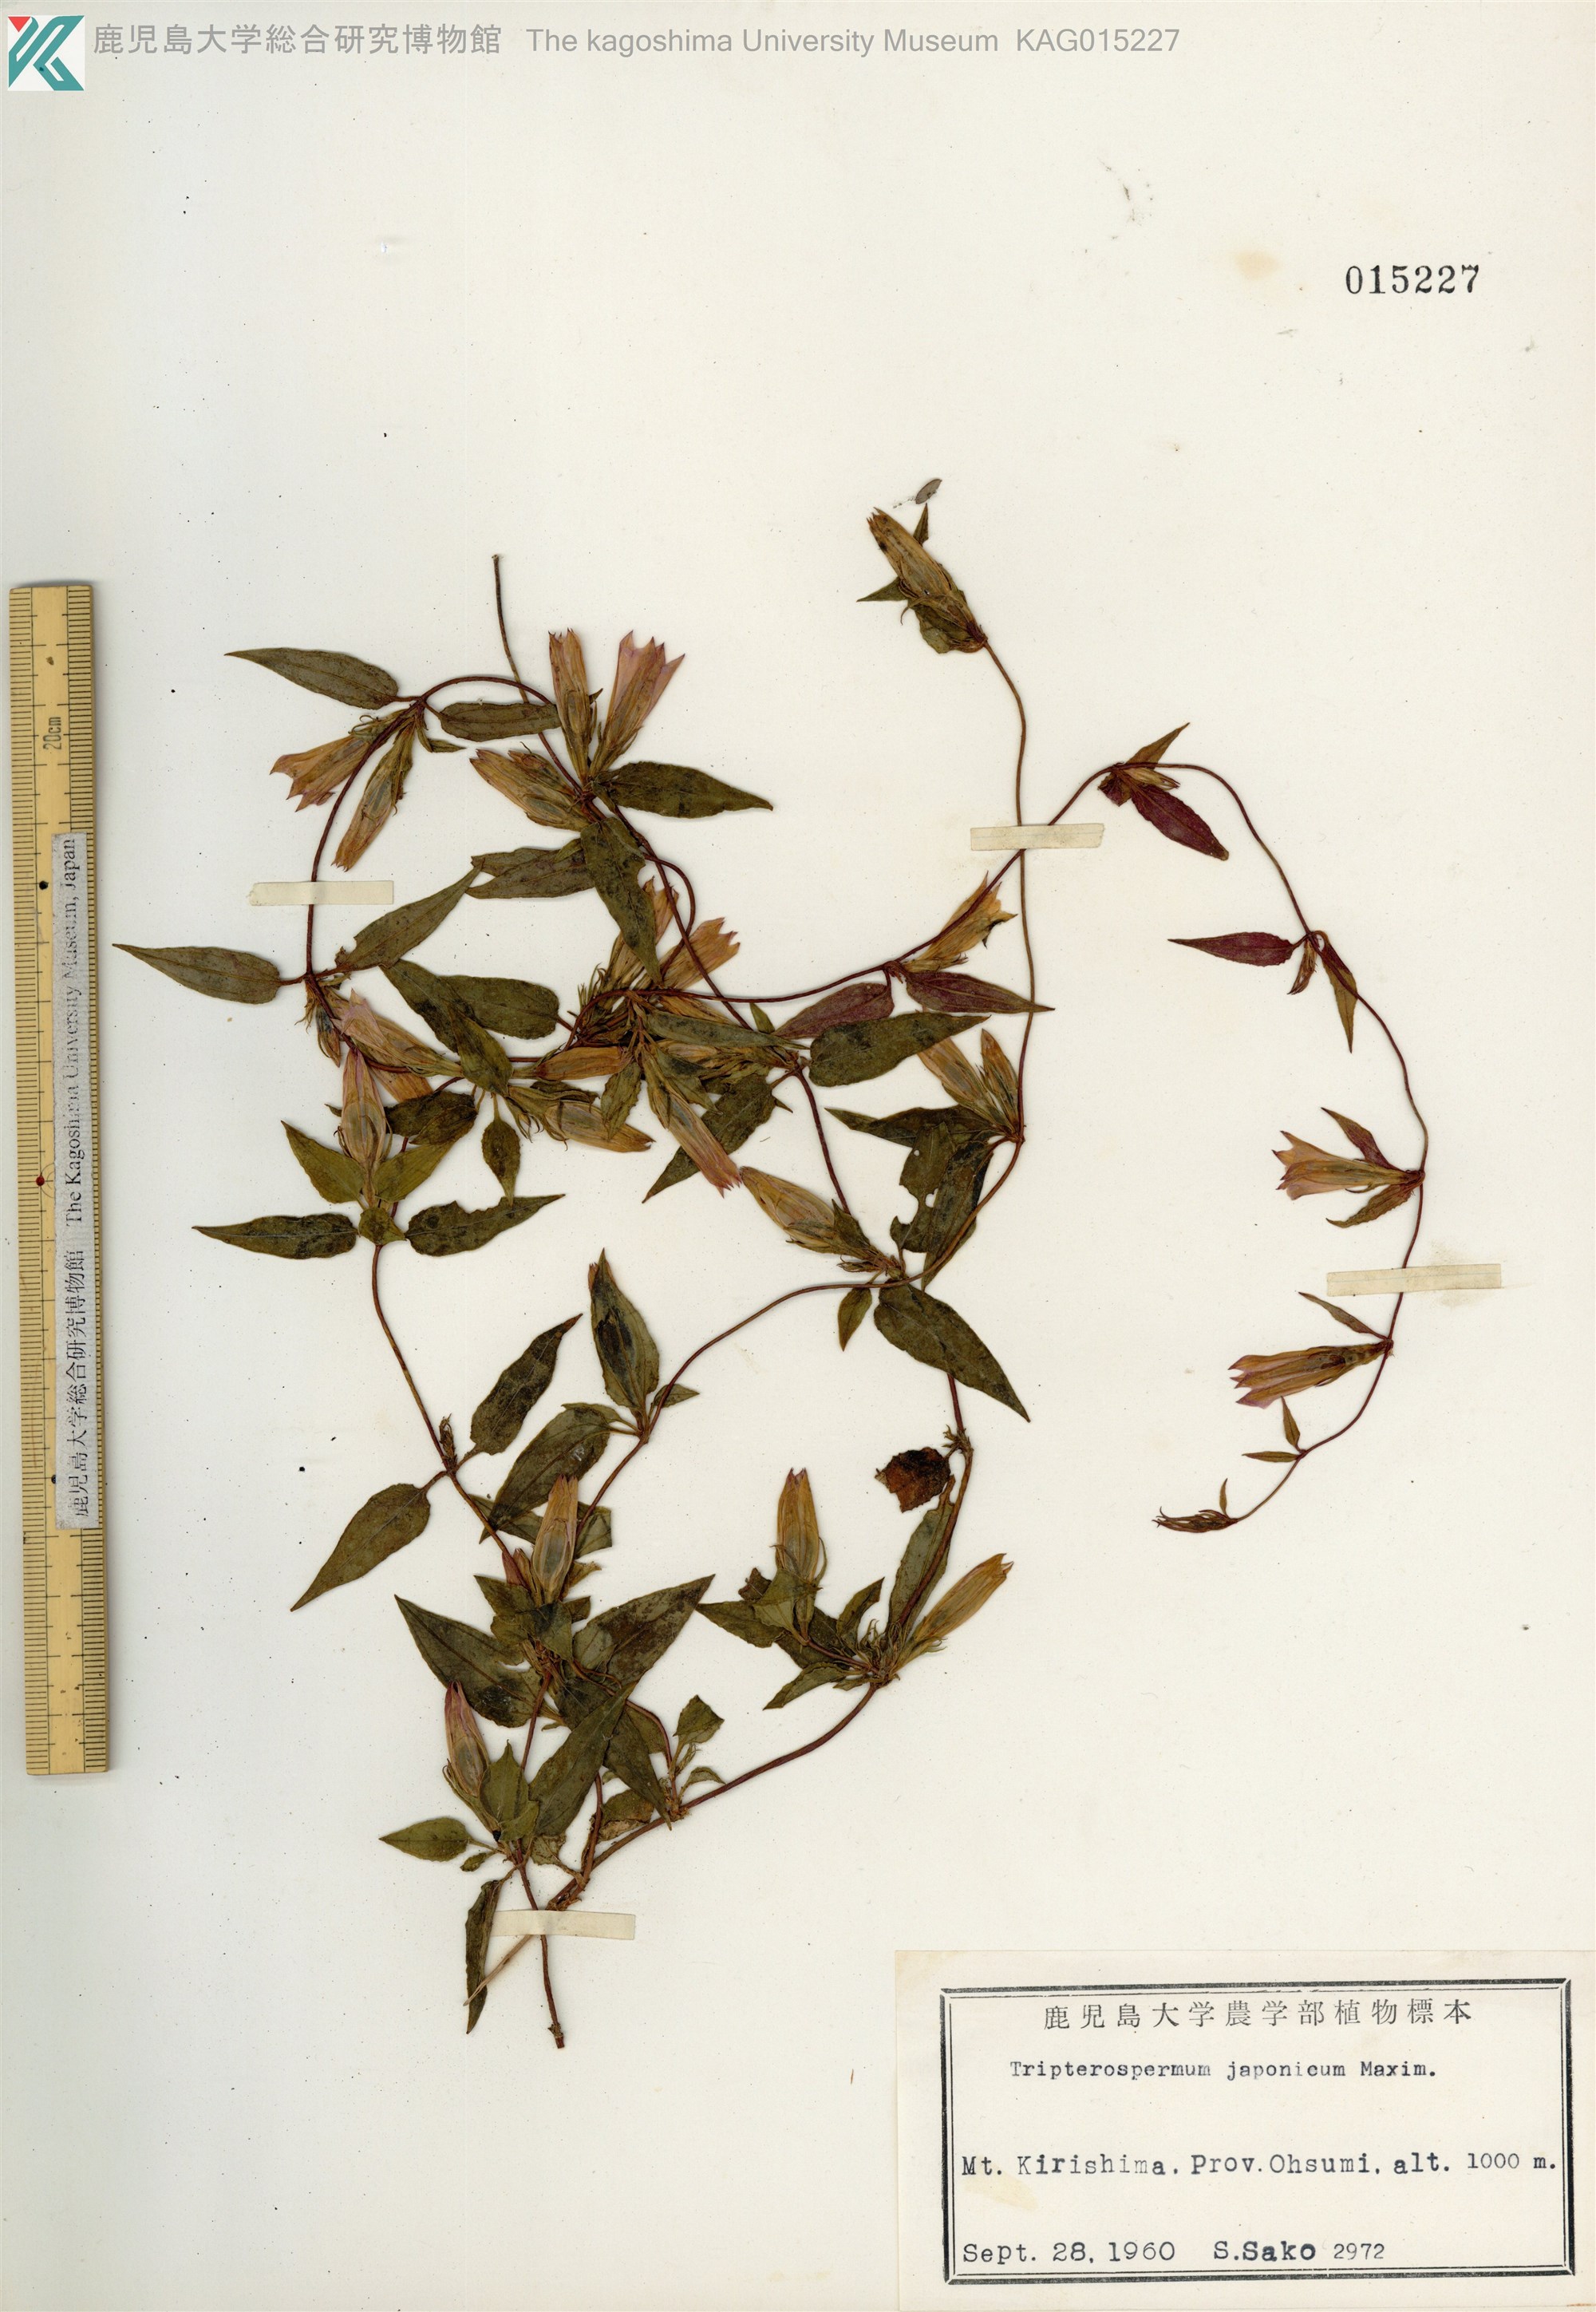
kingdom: Plantae
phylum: Tracheophyta
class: Magnoliopsida
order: Gentianales
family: Gentianaceae
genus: Tripterospermum
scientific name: Tripterospermum trinervium
